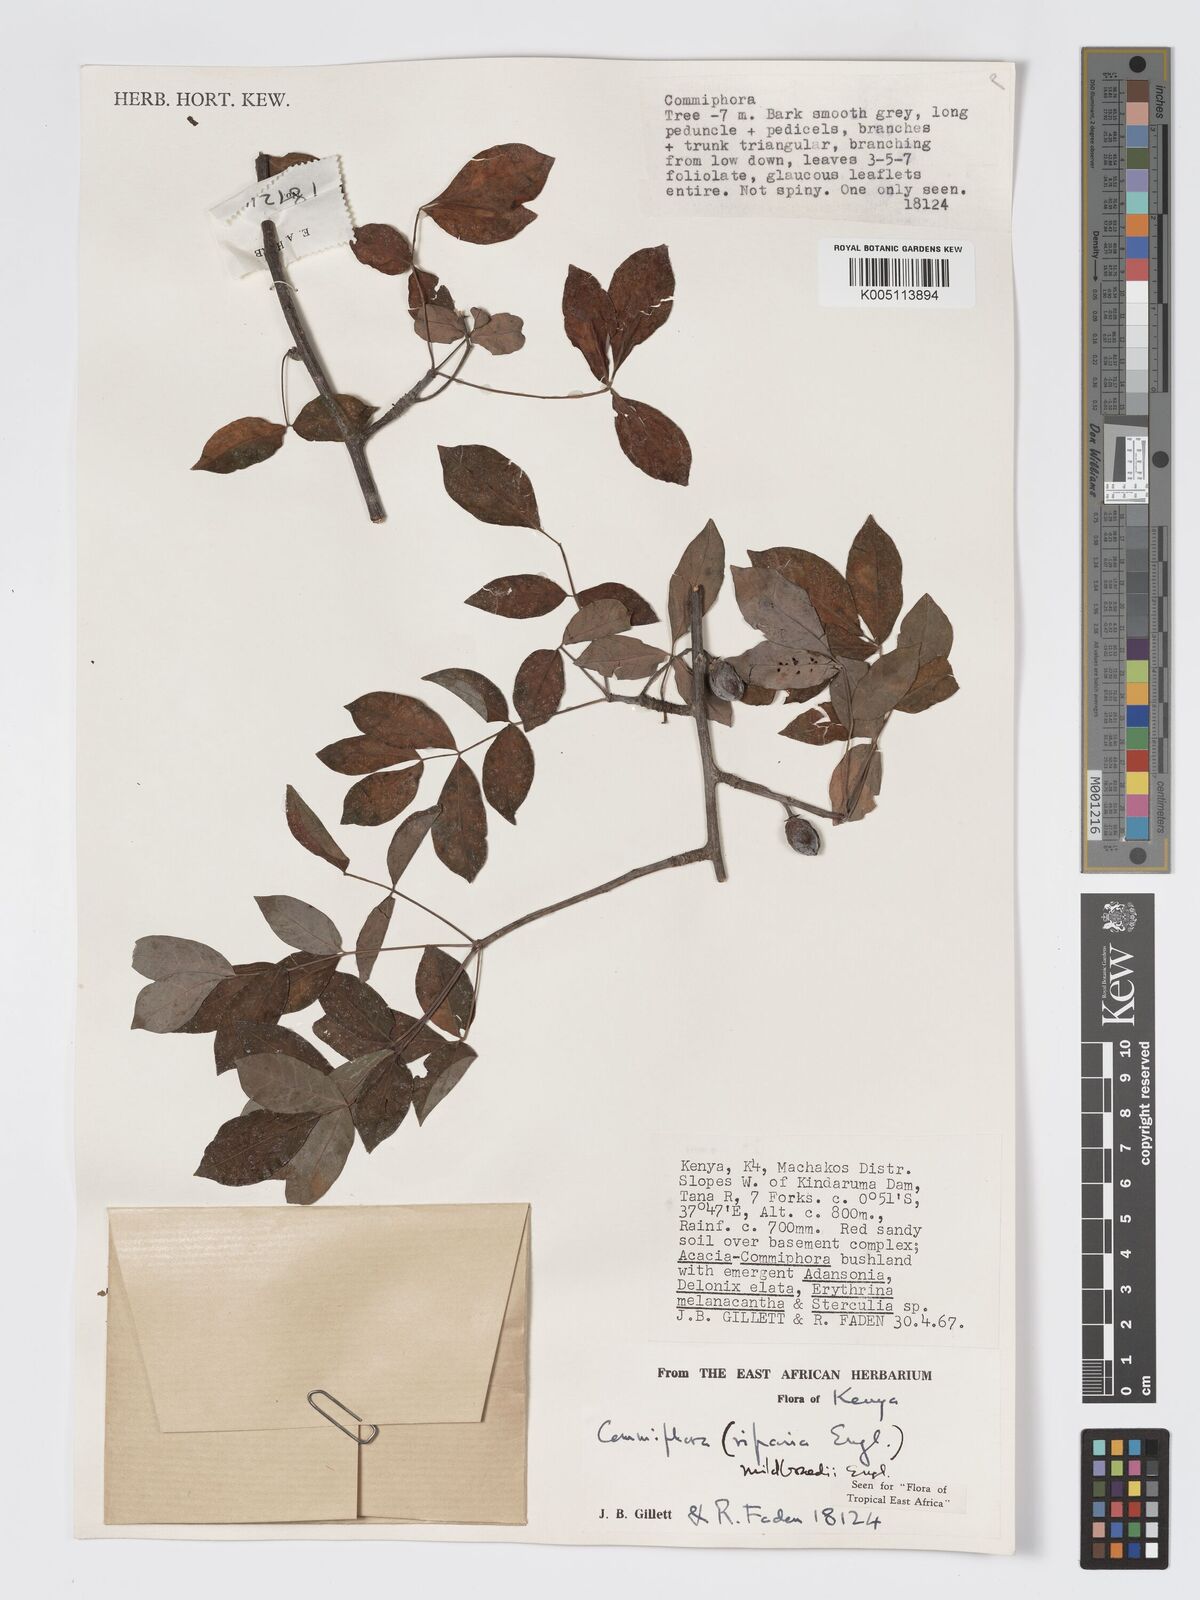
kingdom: Plantae
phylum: Tracheophyta
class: Magnoliopsida
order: Sapindales
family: Burseraceae
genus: Commiphora
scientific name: Commiphora mildbraedii
